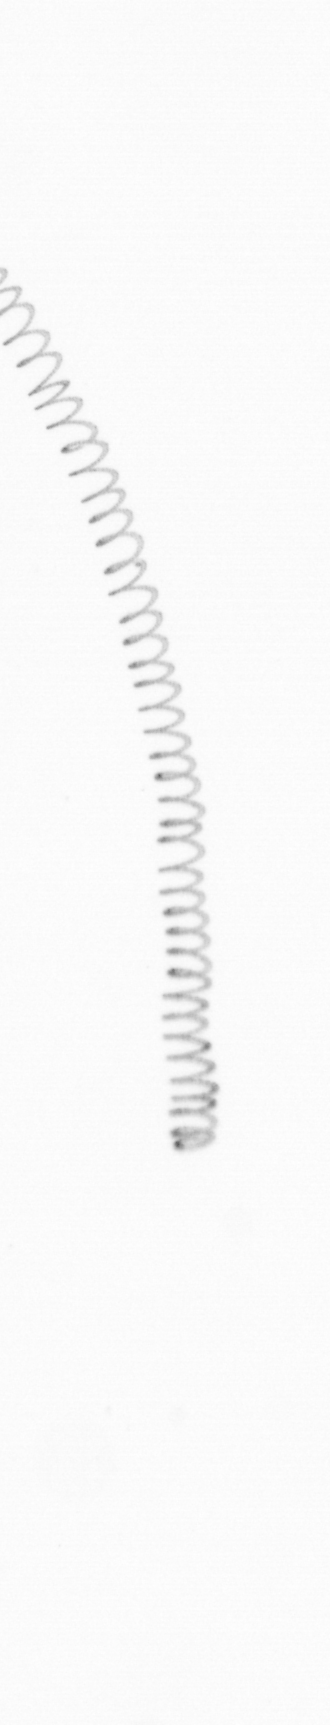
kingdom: Chromista
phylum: Ochrophyta
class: Bacillariophyceae
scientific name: Bacillariophyceae
